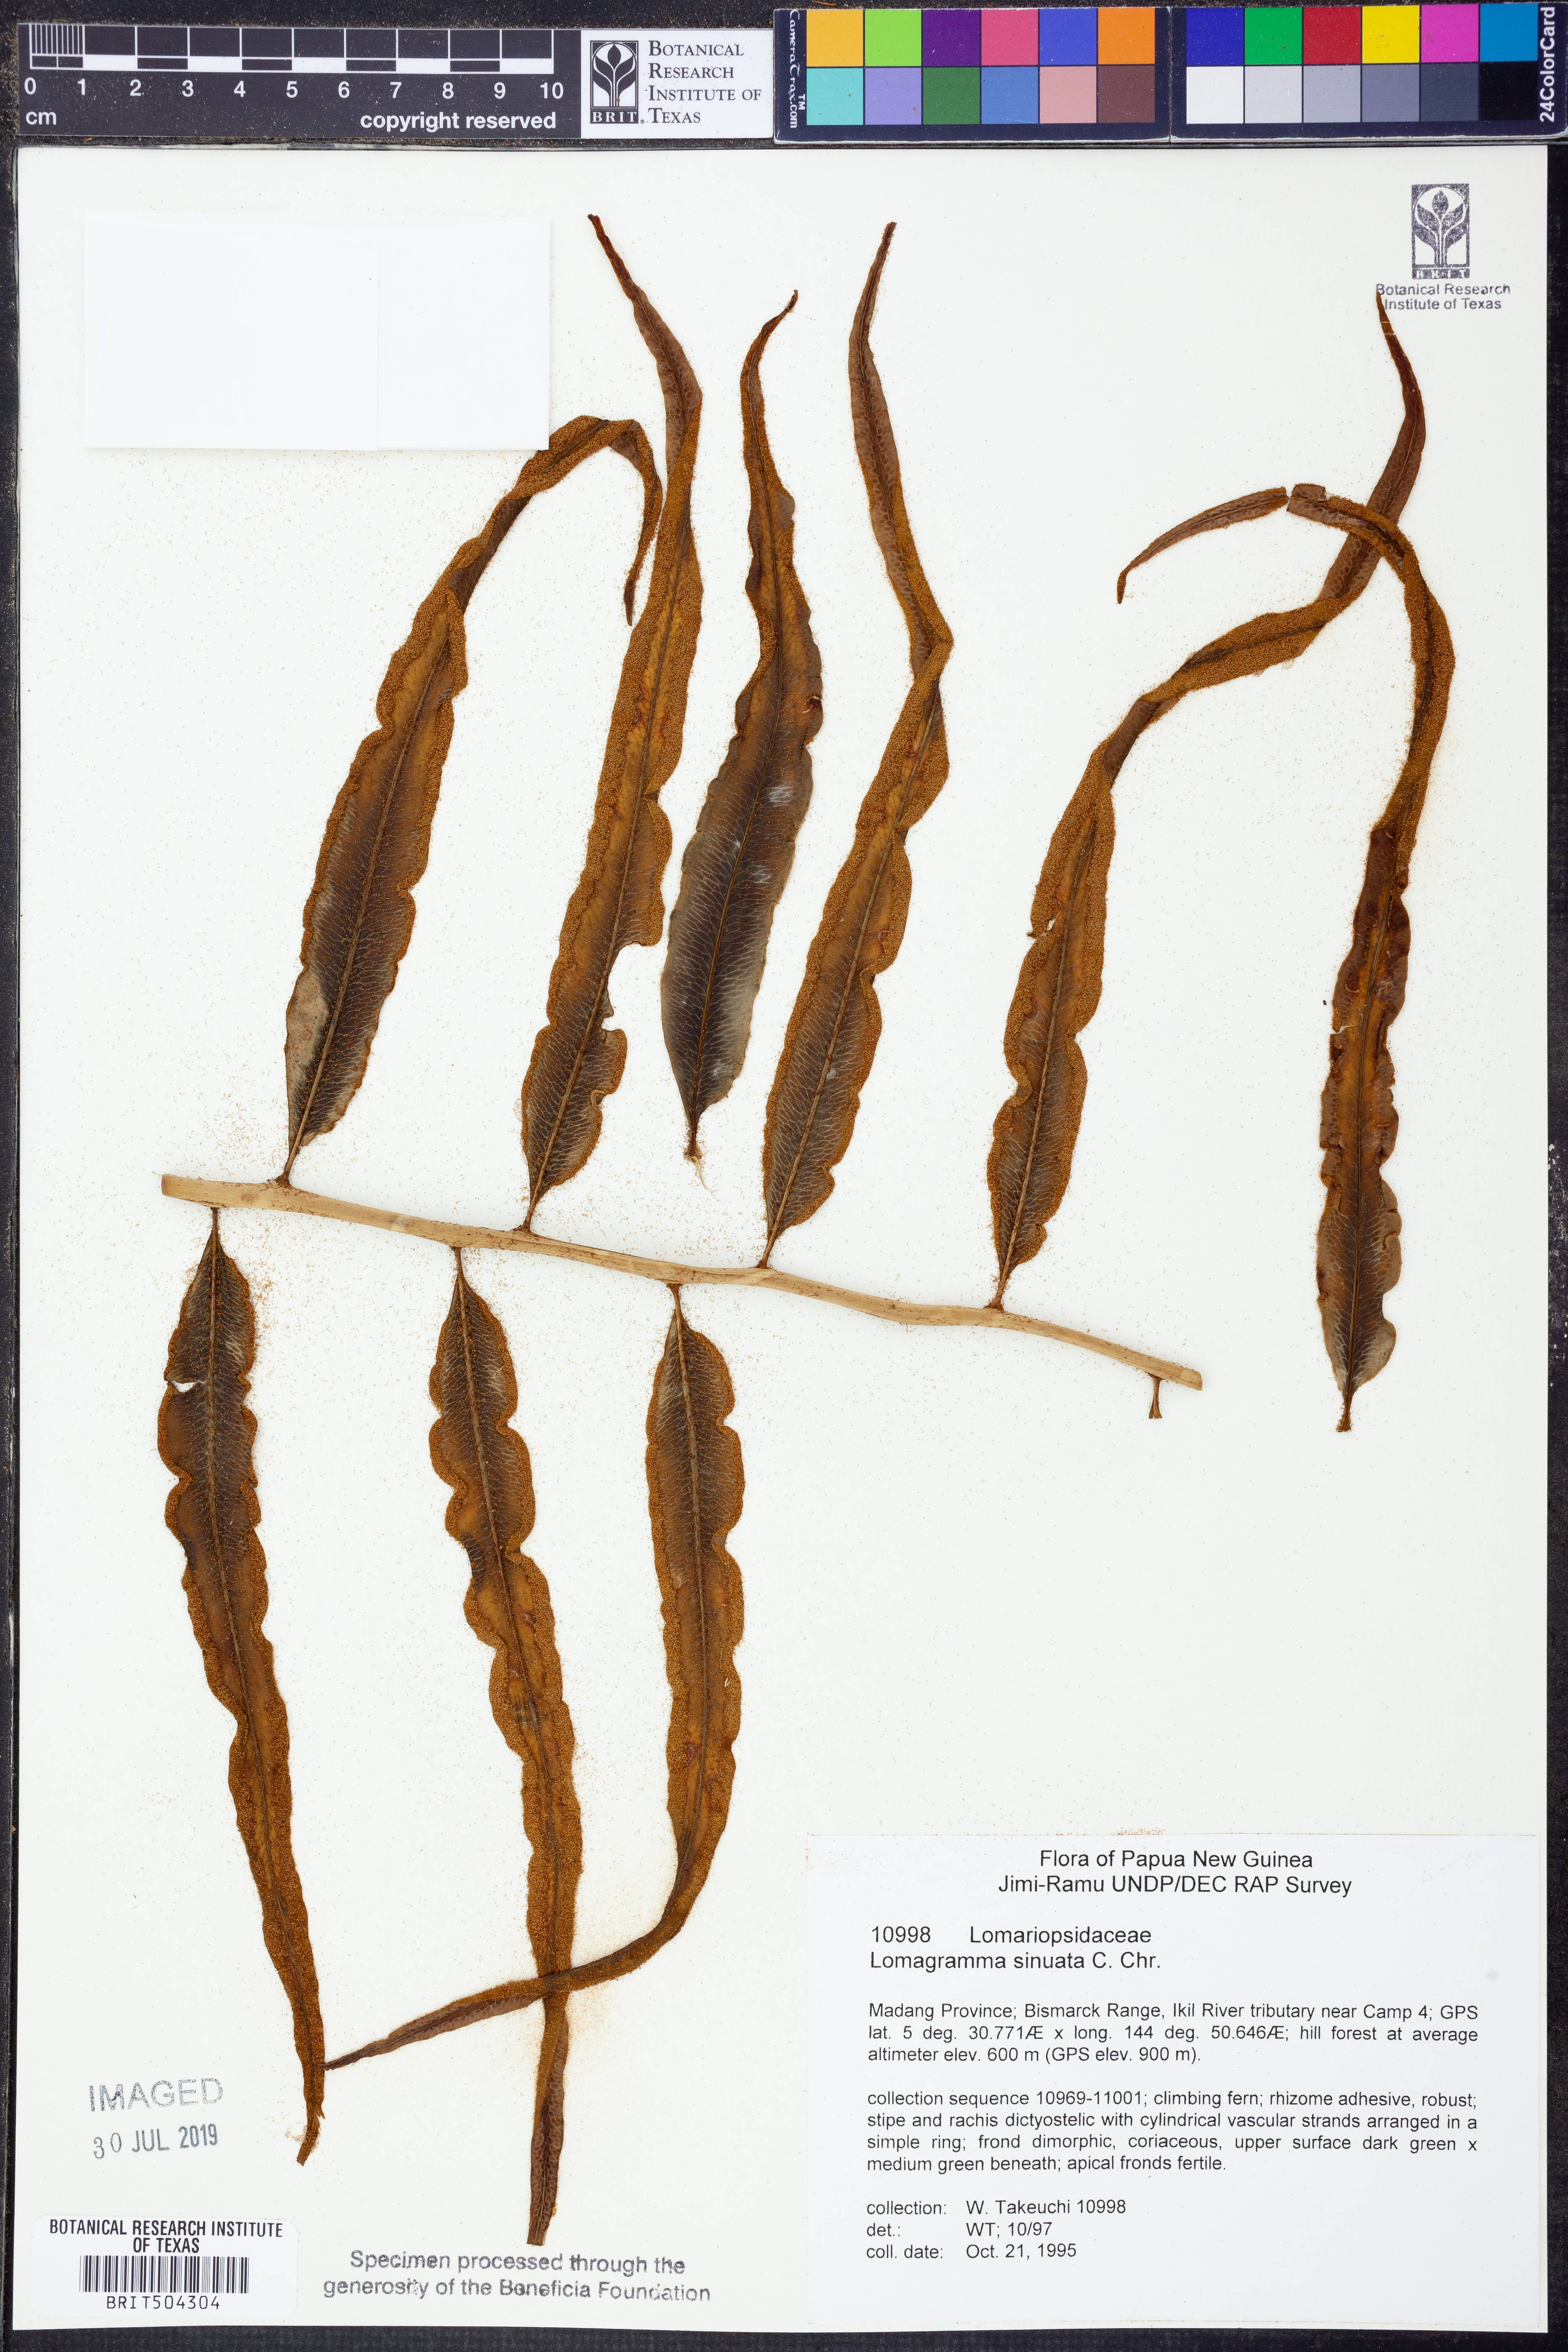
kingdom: Plantae
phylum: Tracheophyta
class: Polypodiopsida
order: Polypodiales
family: Dryopteridaceae
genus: Lomagramma
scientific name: Lomagramma sinuata
